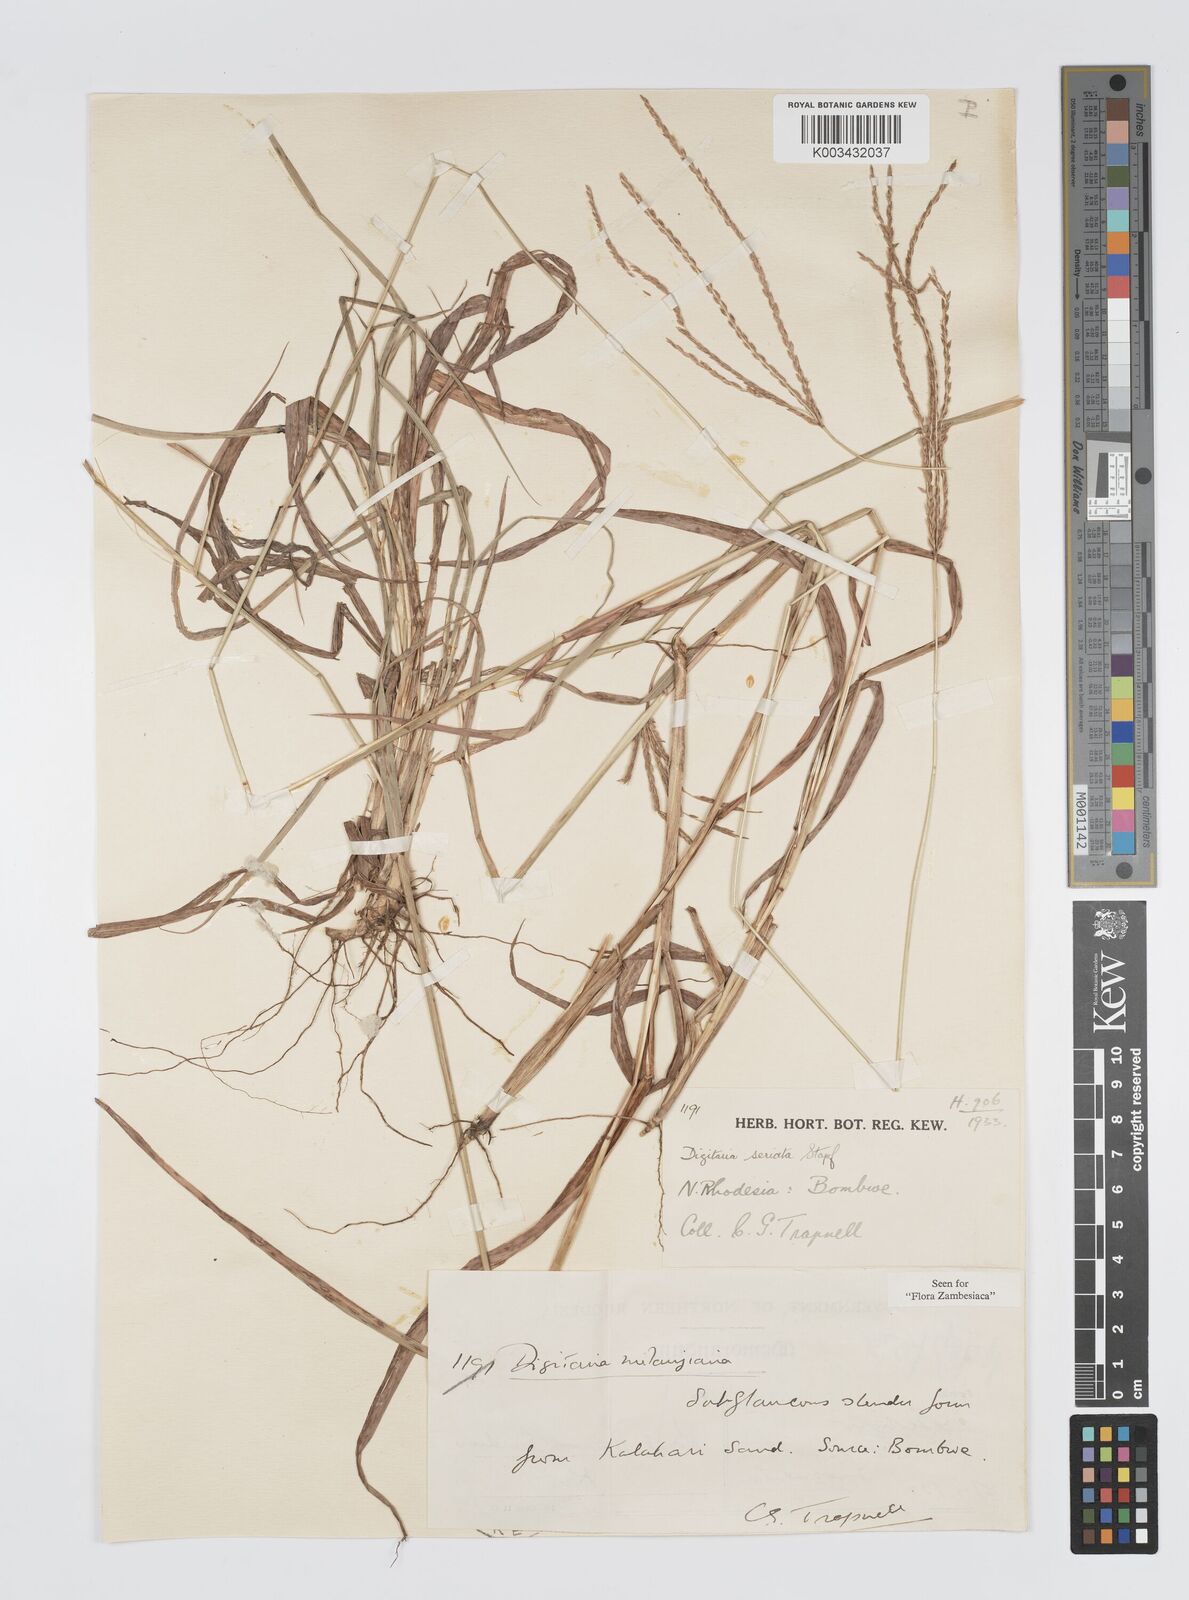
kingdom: Plantae
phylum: Tracheophyta
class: Liliopsida
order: Poales
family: Poaceae
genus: Digitaria
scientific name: Digitaria milanjiana
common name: Madagascar crabgrass
